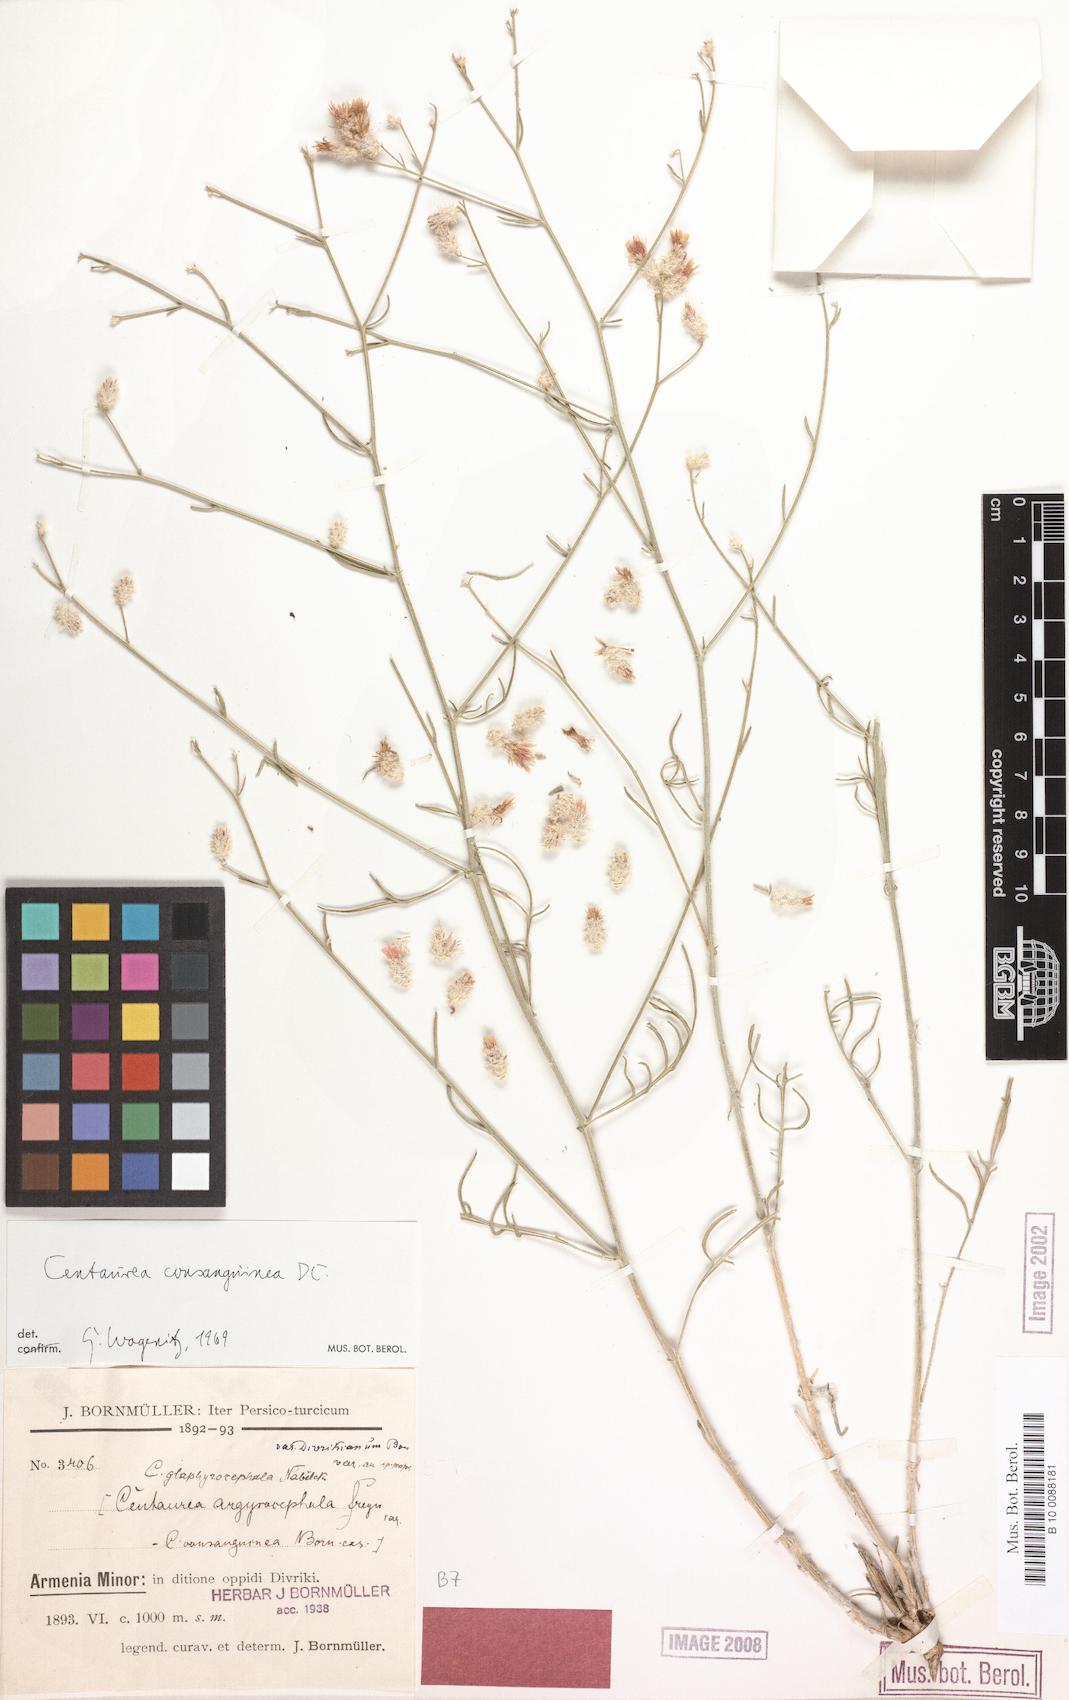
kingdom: Plantae
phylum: Tracheophyta
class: Magnoliopsida
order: Asterales
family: Asteraceae
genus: Centaurea
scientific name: Centaurea consanguinea
